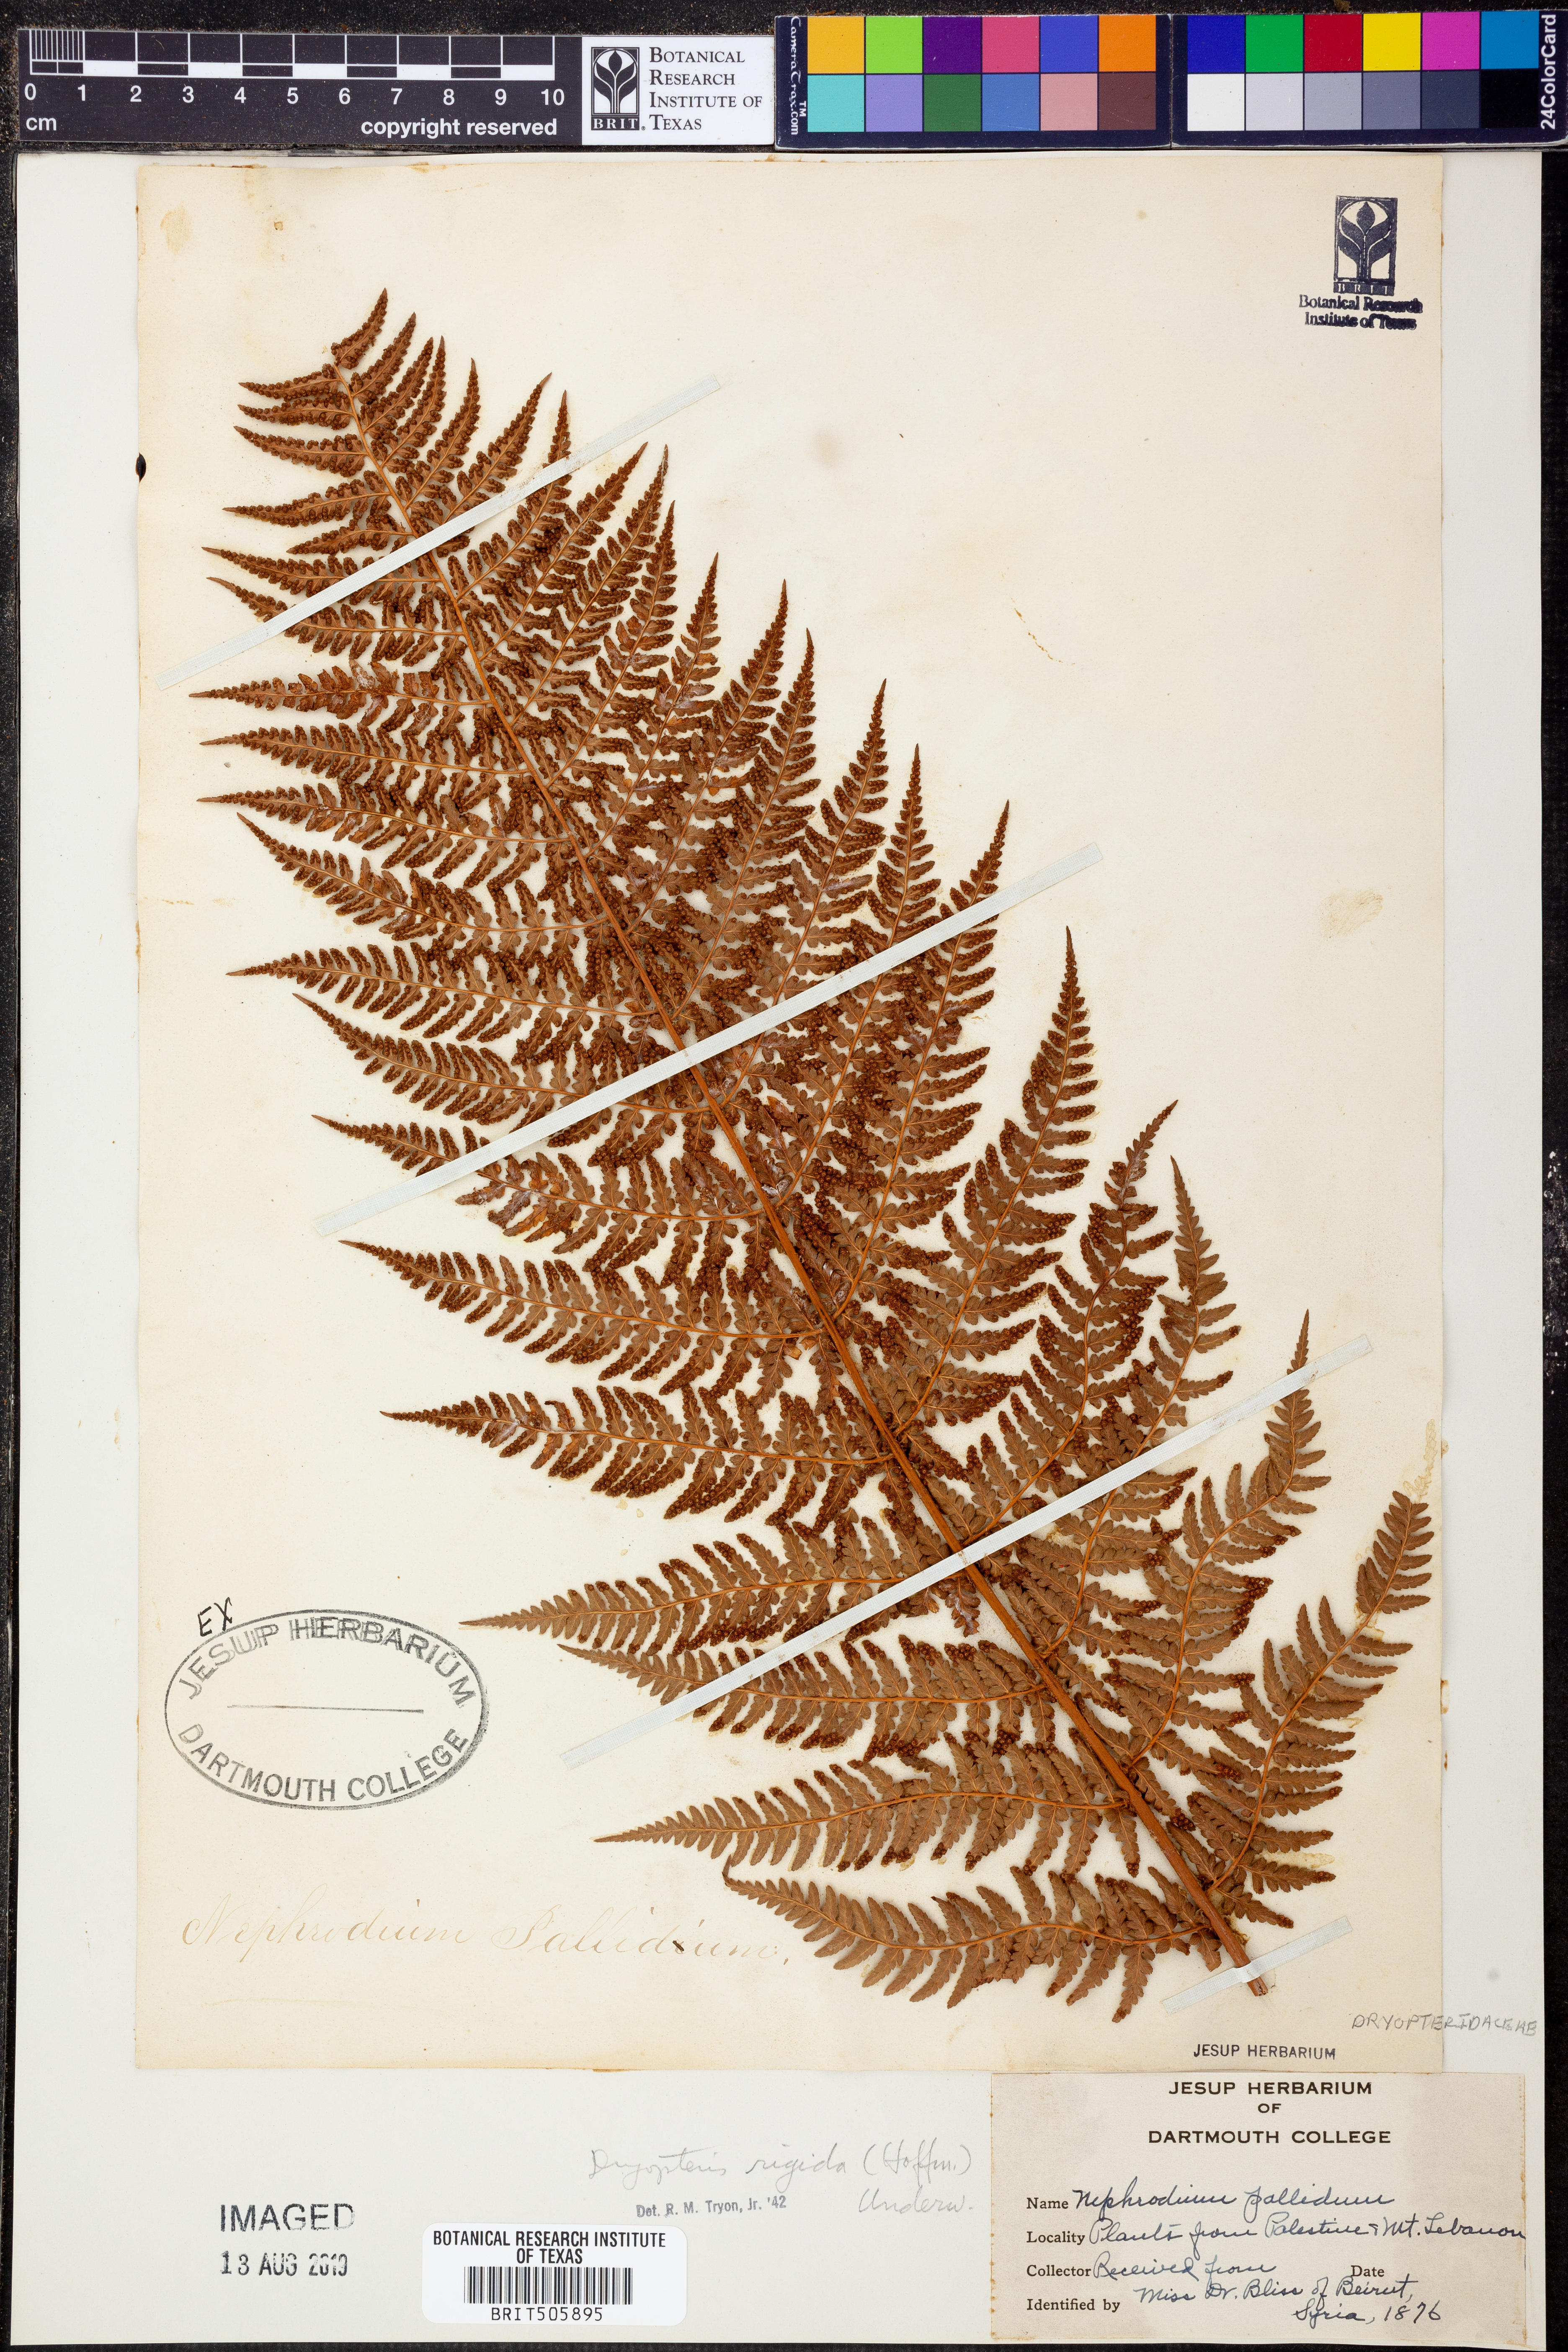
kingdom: Plantae
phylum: Tracheophyta
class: Polypodiopsida
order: Polypodiales
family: Dryopteridaceae
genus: Dryopteris
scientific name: Dryopteris
